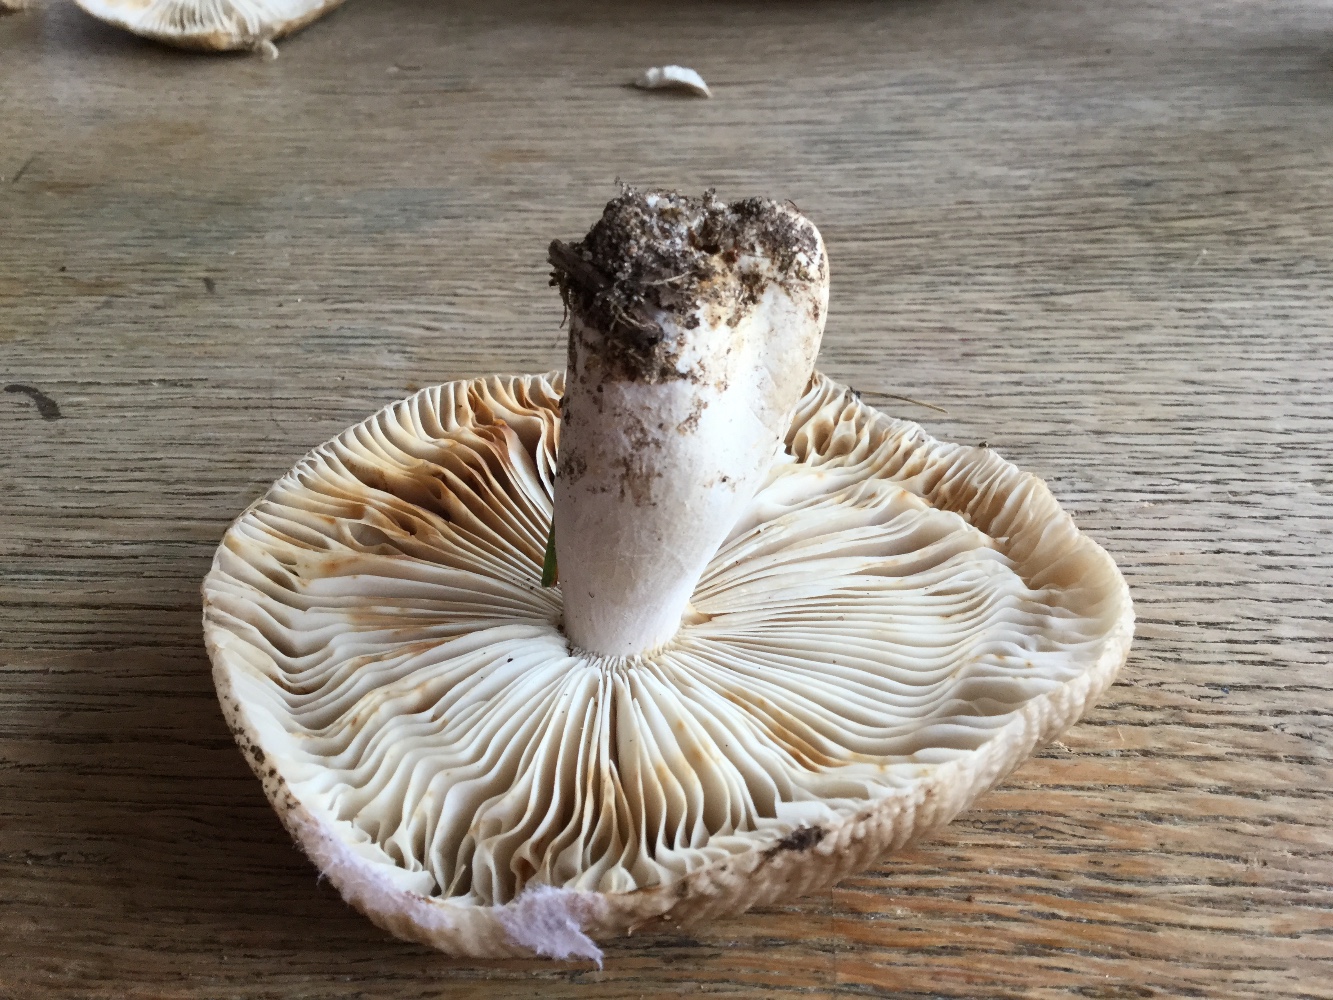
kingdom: Fungi
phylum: Basidiomycota
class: Agaricomycetes
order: Russulales
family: Russulaceae
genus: Russula
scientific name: Russula sororia
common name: brun kam-skørhat
